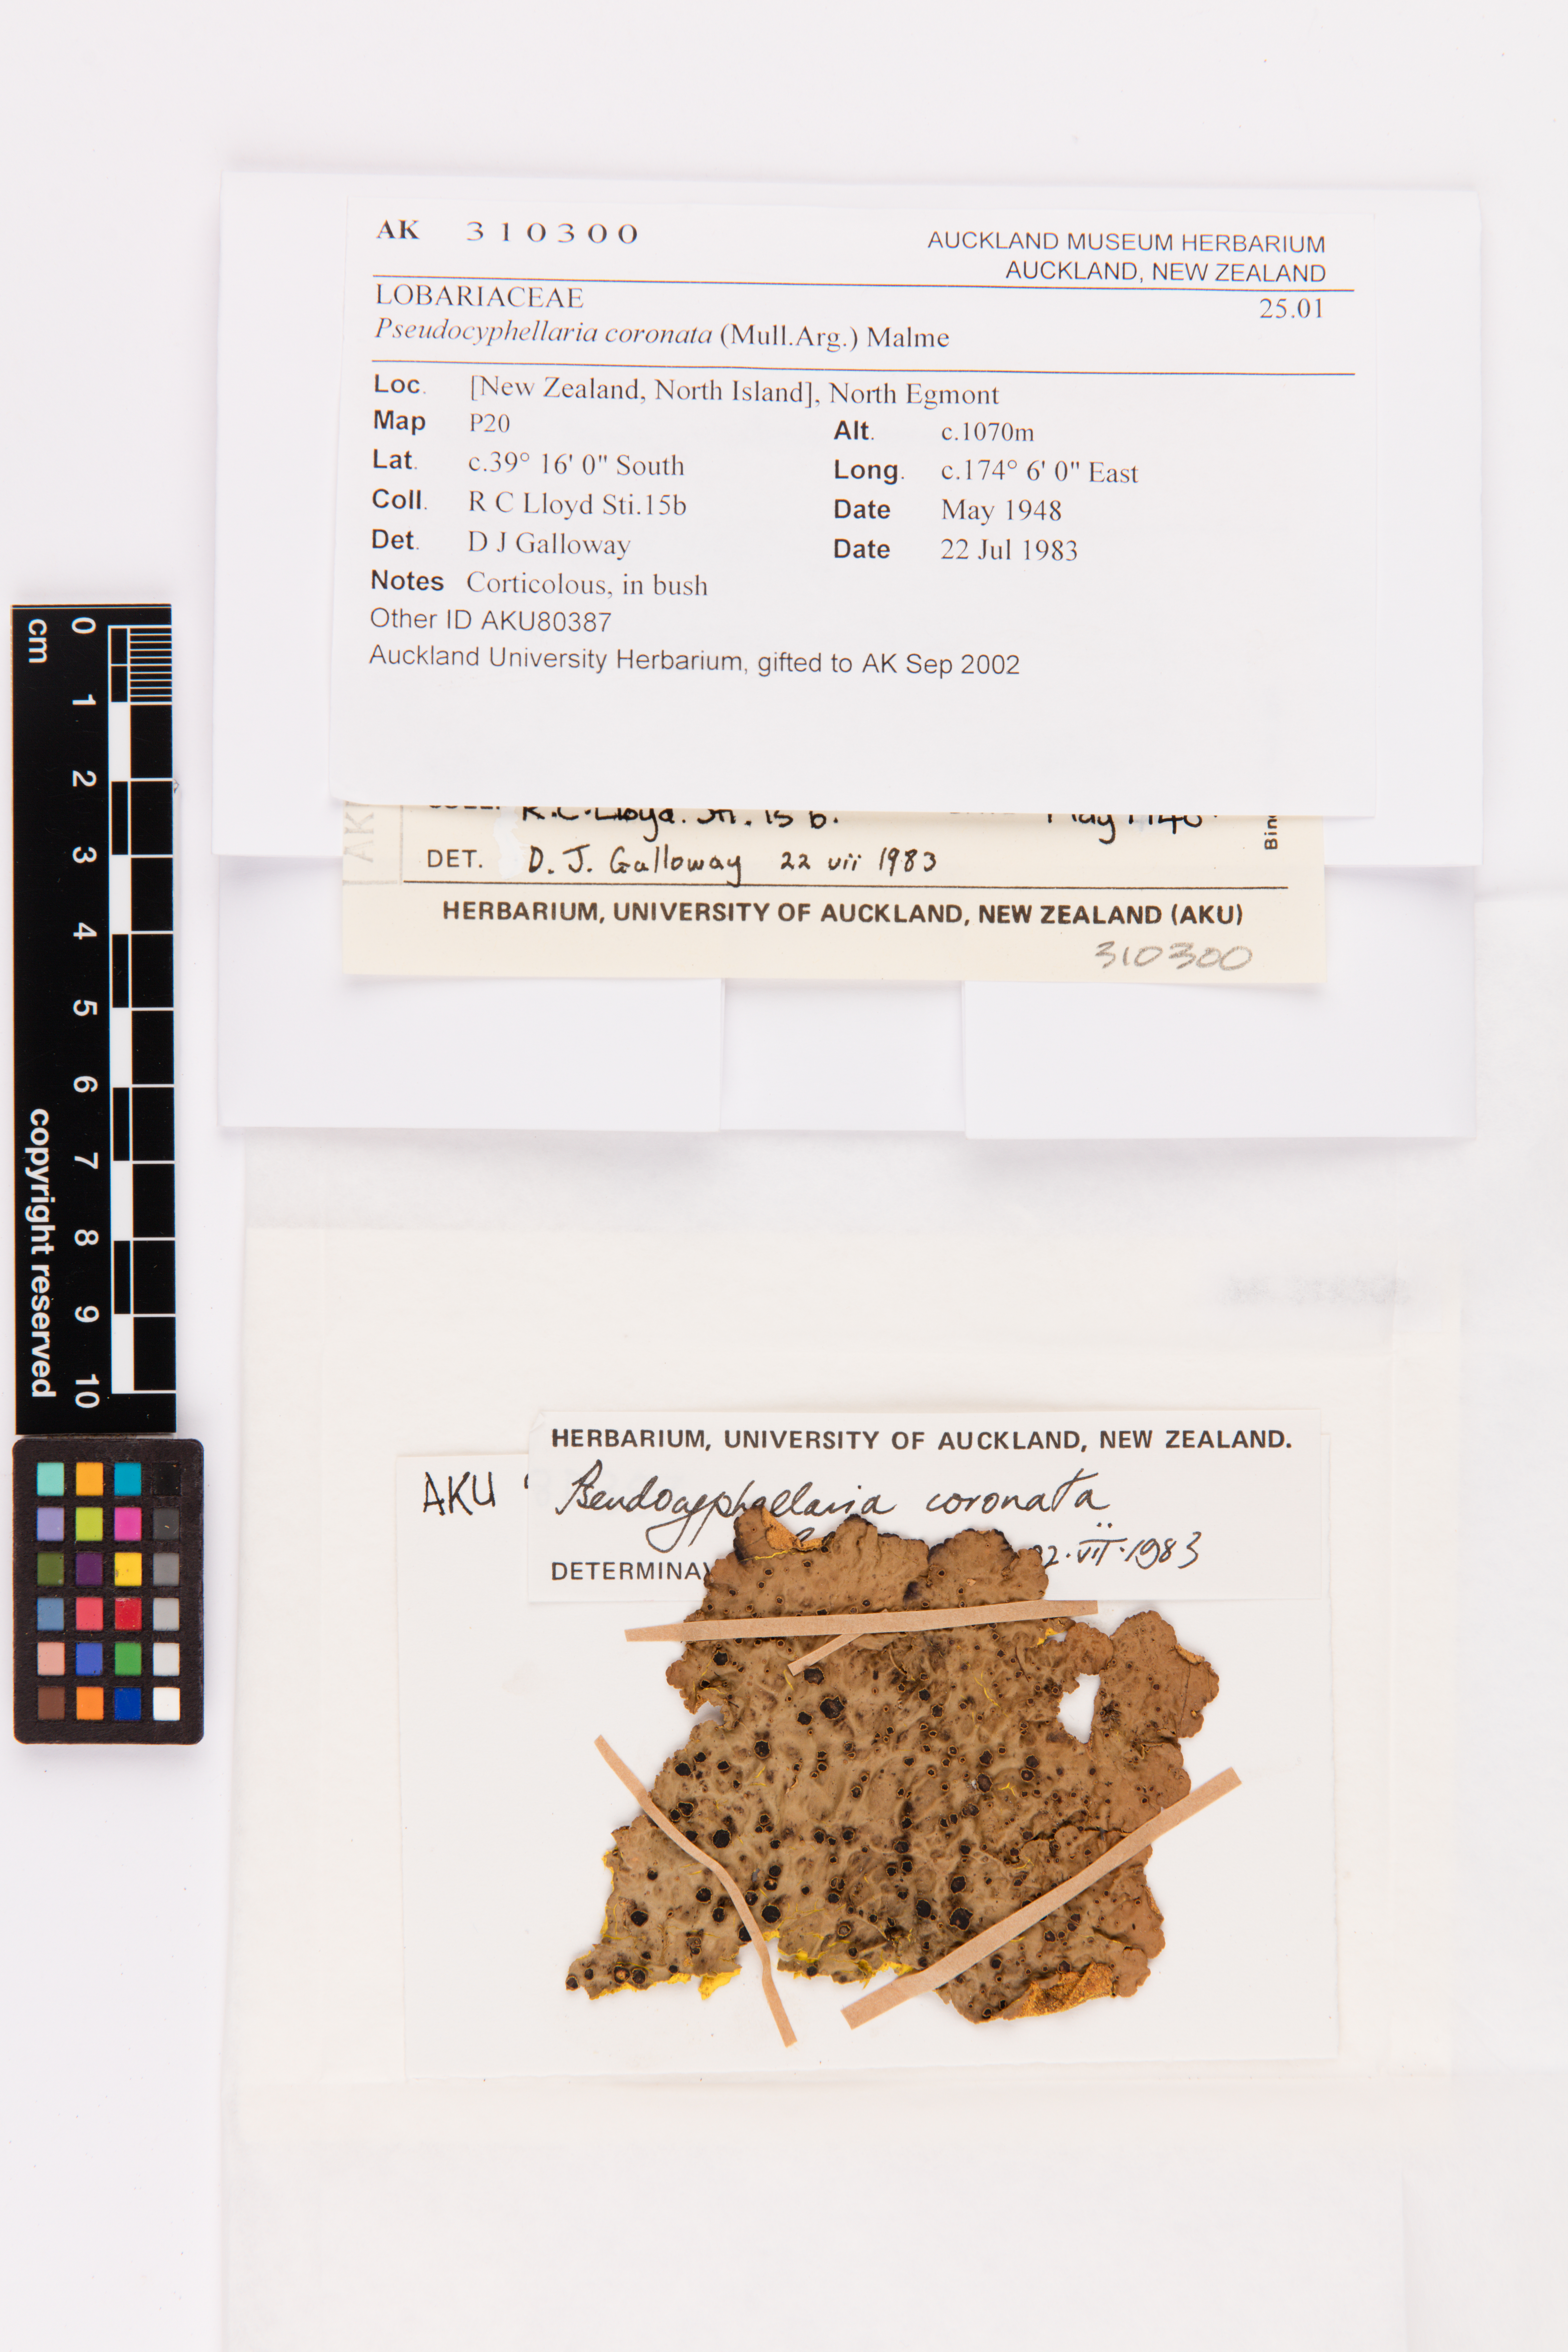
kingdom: Fungi
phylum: Ascomycota
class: Lecanoromycetes
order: Peltigerales
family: Lobariaceae
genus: Yarrumia
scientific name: Yarrumia coronata
